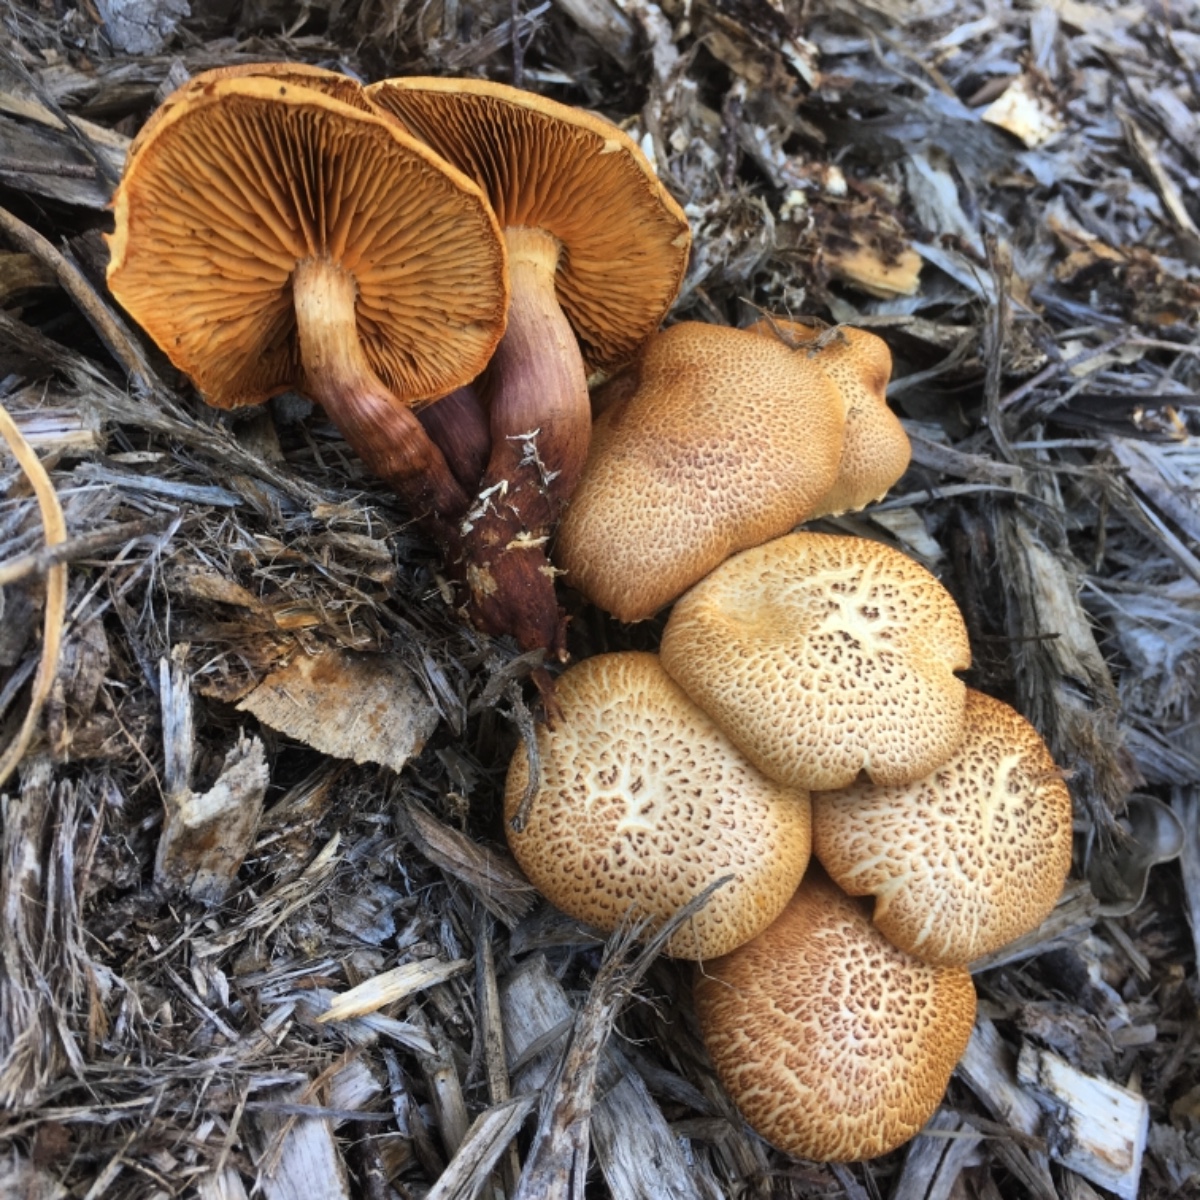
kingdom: Fungi
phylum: Basidiomycota
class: Agaricomycetes
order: Agaricales
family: Hymenogastraceae
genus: Gymnopilus
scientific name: Gymnopilus dilepis
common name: Magenta rustgill
